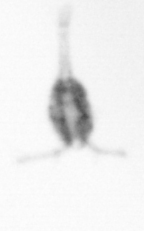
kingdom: Animalia
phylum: Arthropoda
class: Copepoda
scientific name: Copepoda
